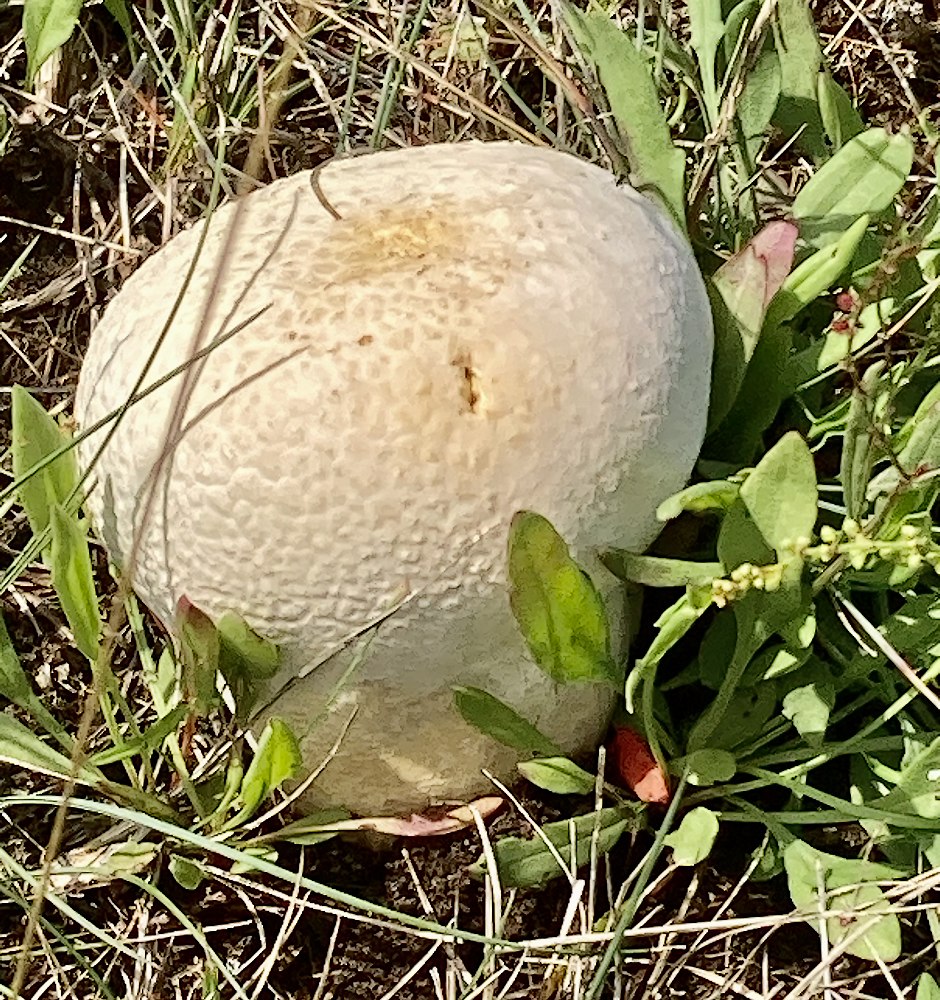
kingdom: Fungi
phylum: Basidiomycota
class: Agaricomycetes
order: Agaricales
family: Lycoperdaceae
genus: Bovistella
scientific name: Bovistella utriformis
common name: skællet støvbold
